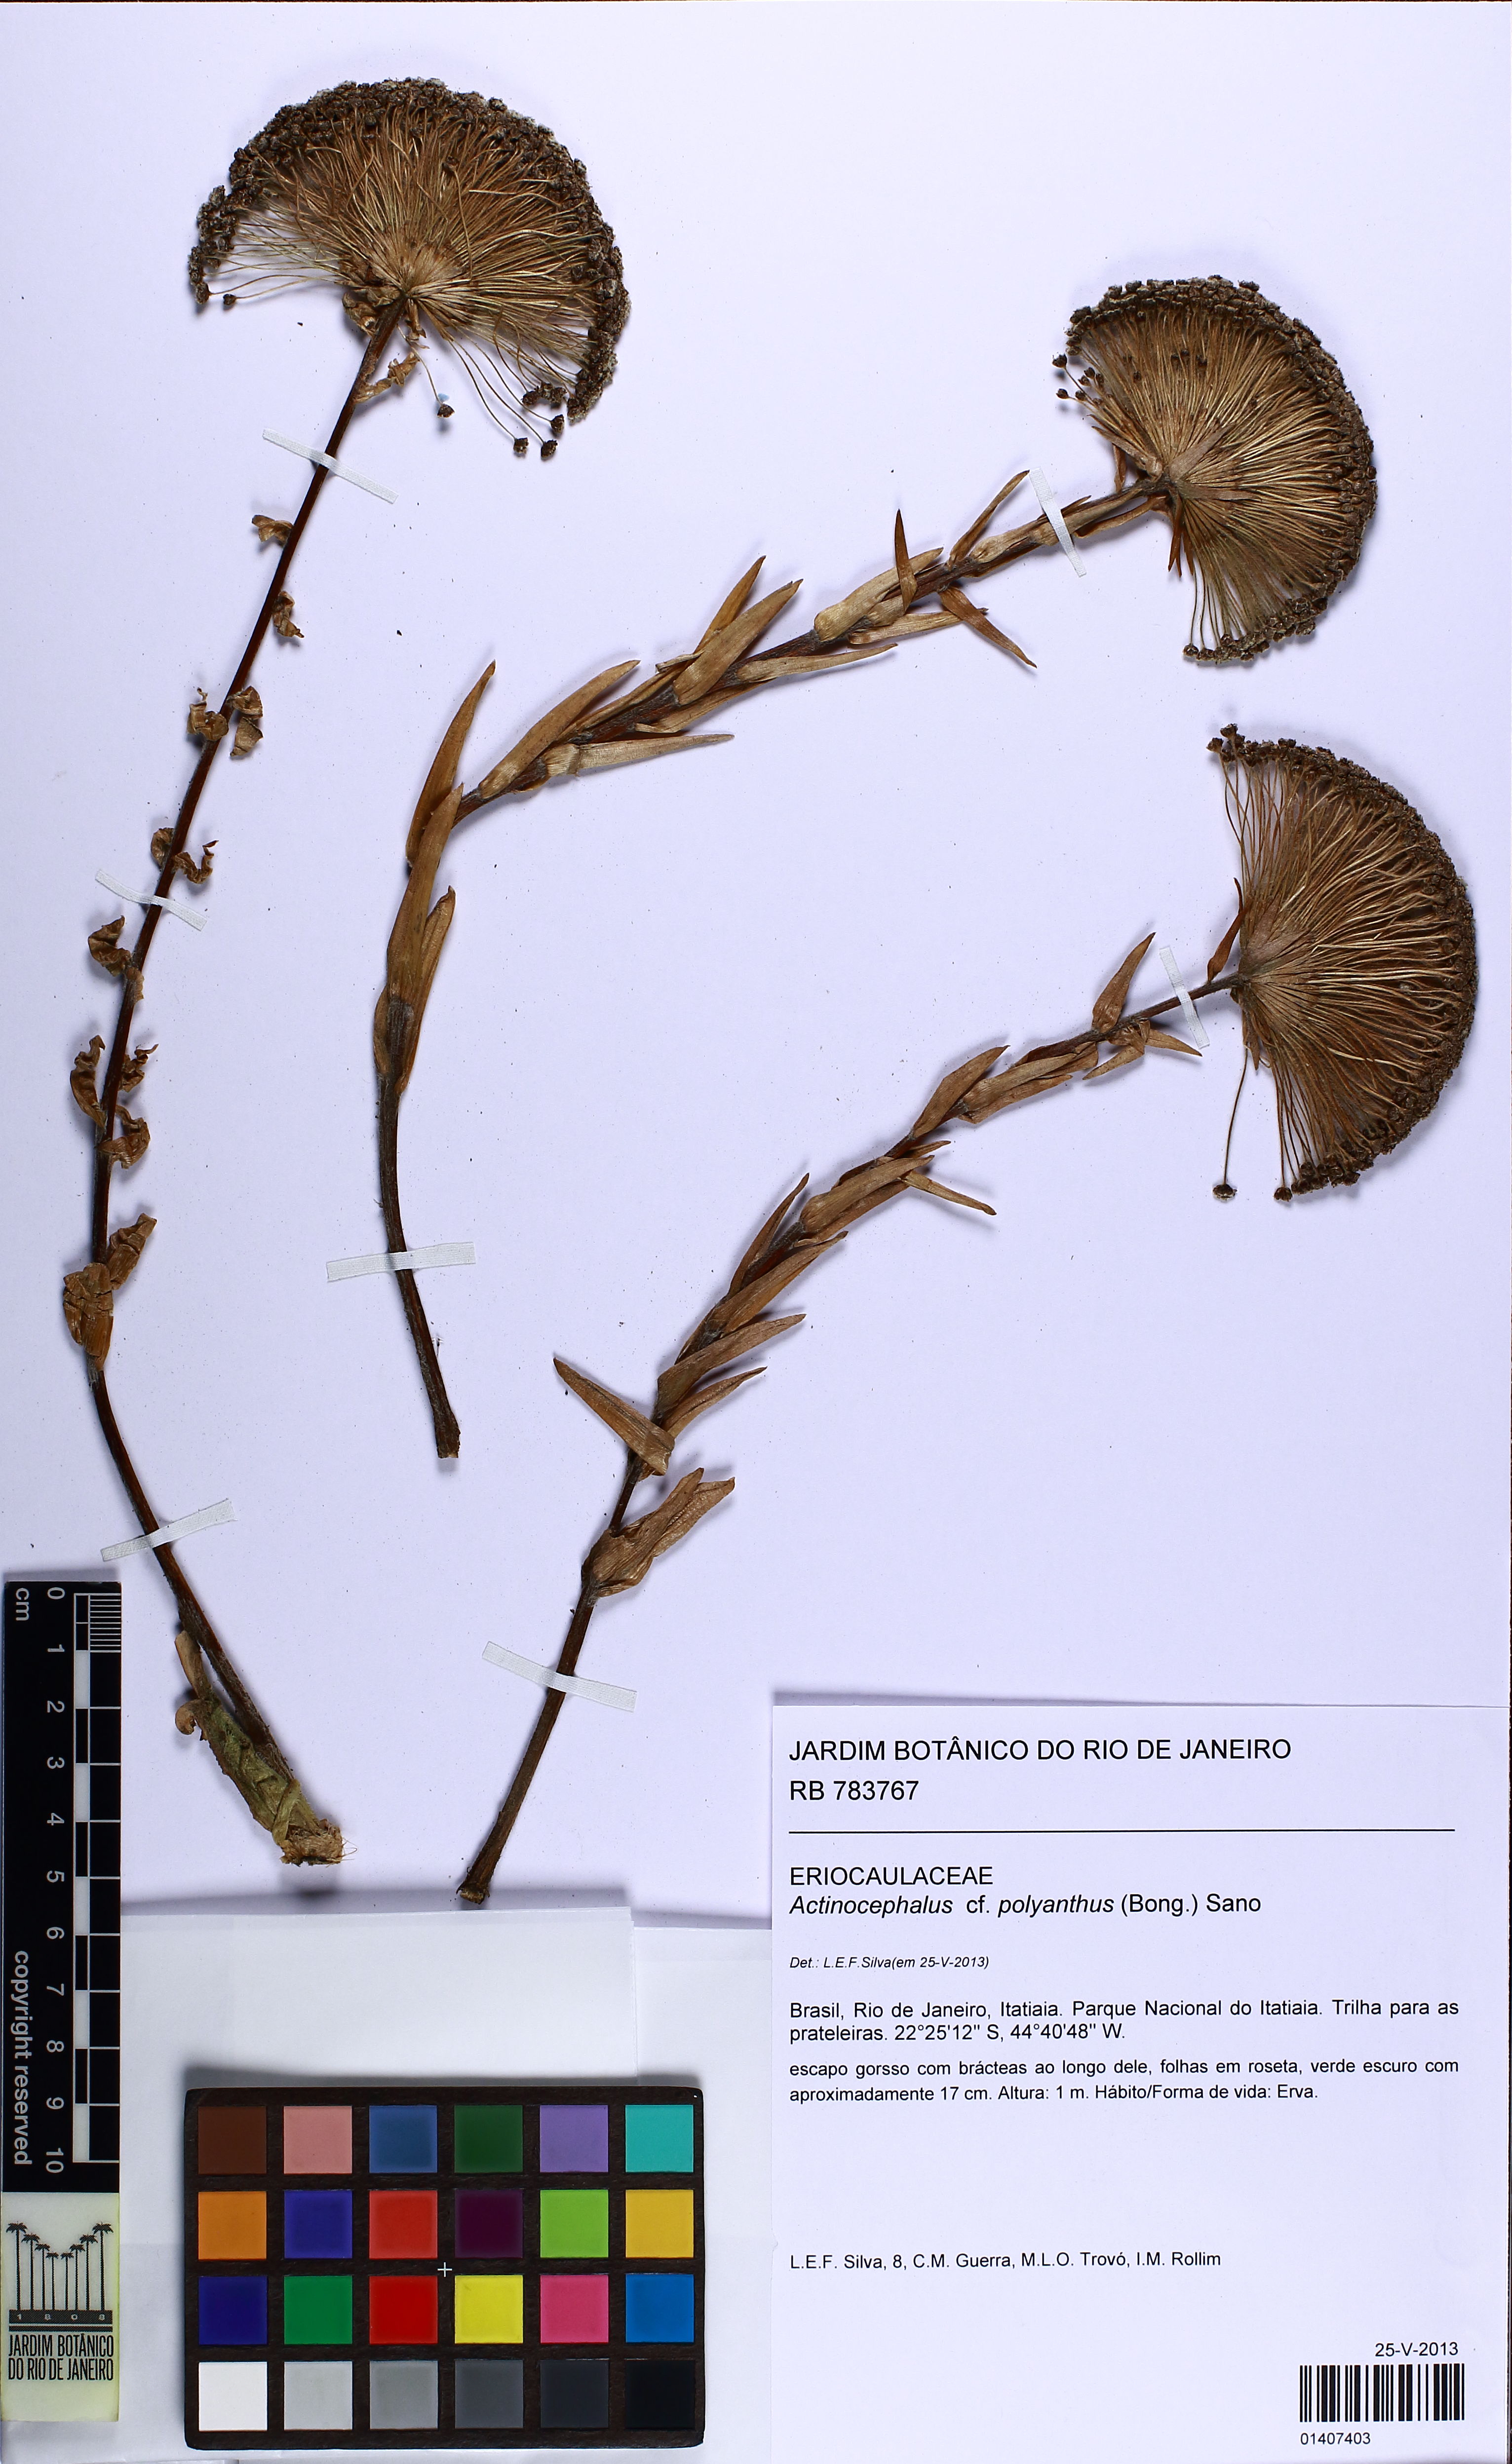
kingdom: Plantae
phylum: Tracheophyta
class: Liliopsida
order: Poales
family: Eriocaulaceae
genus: Paepalanthus
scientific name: Paepalanthus polyanthus
